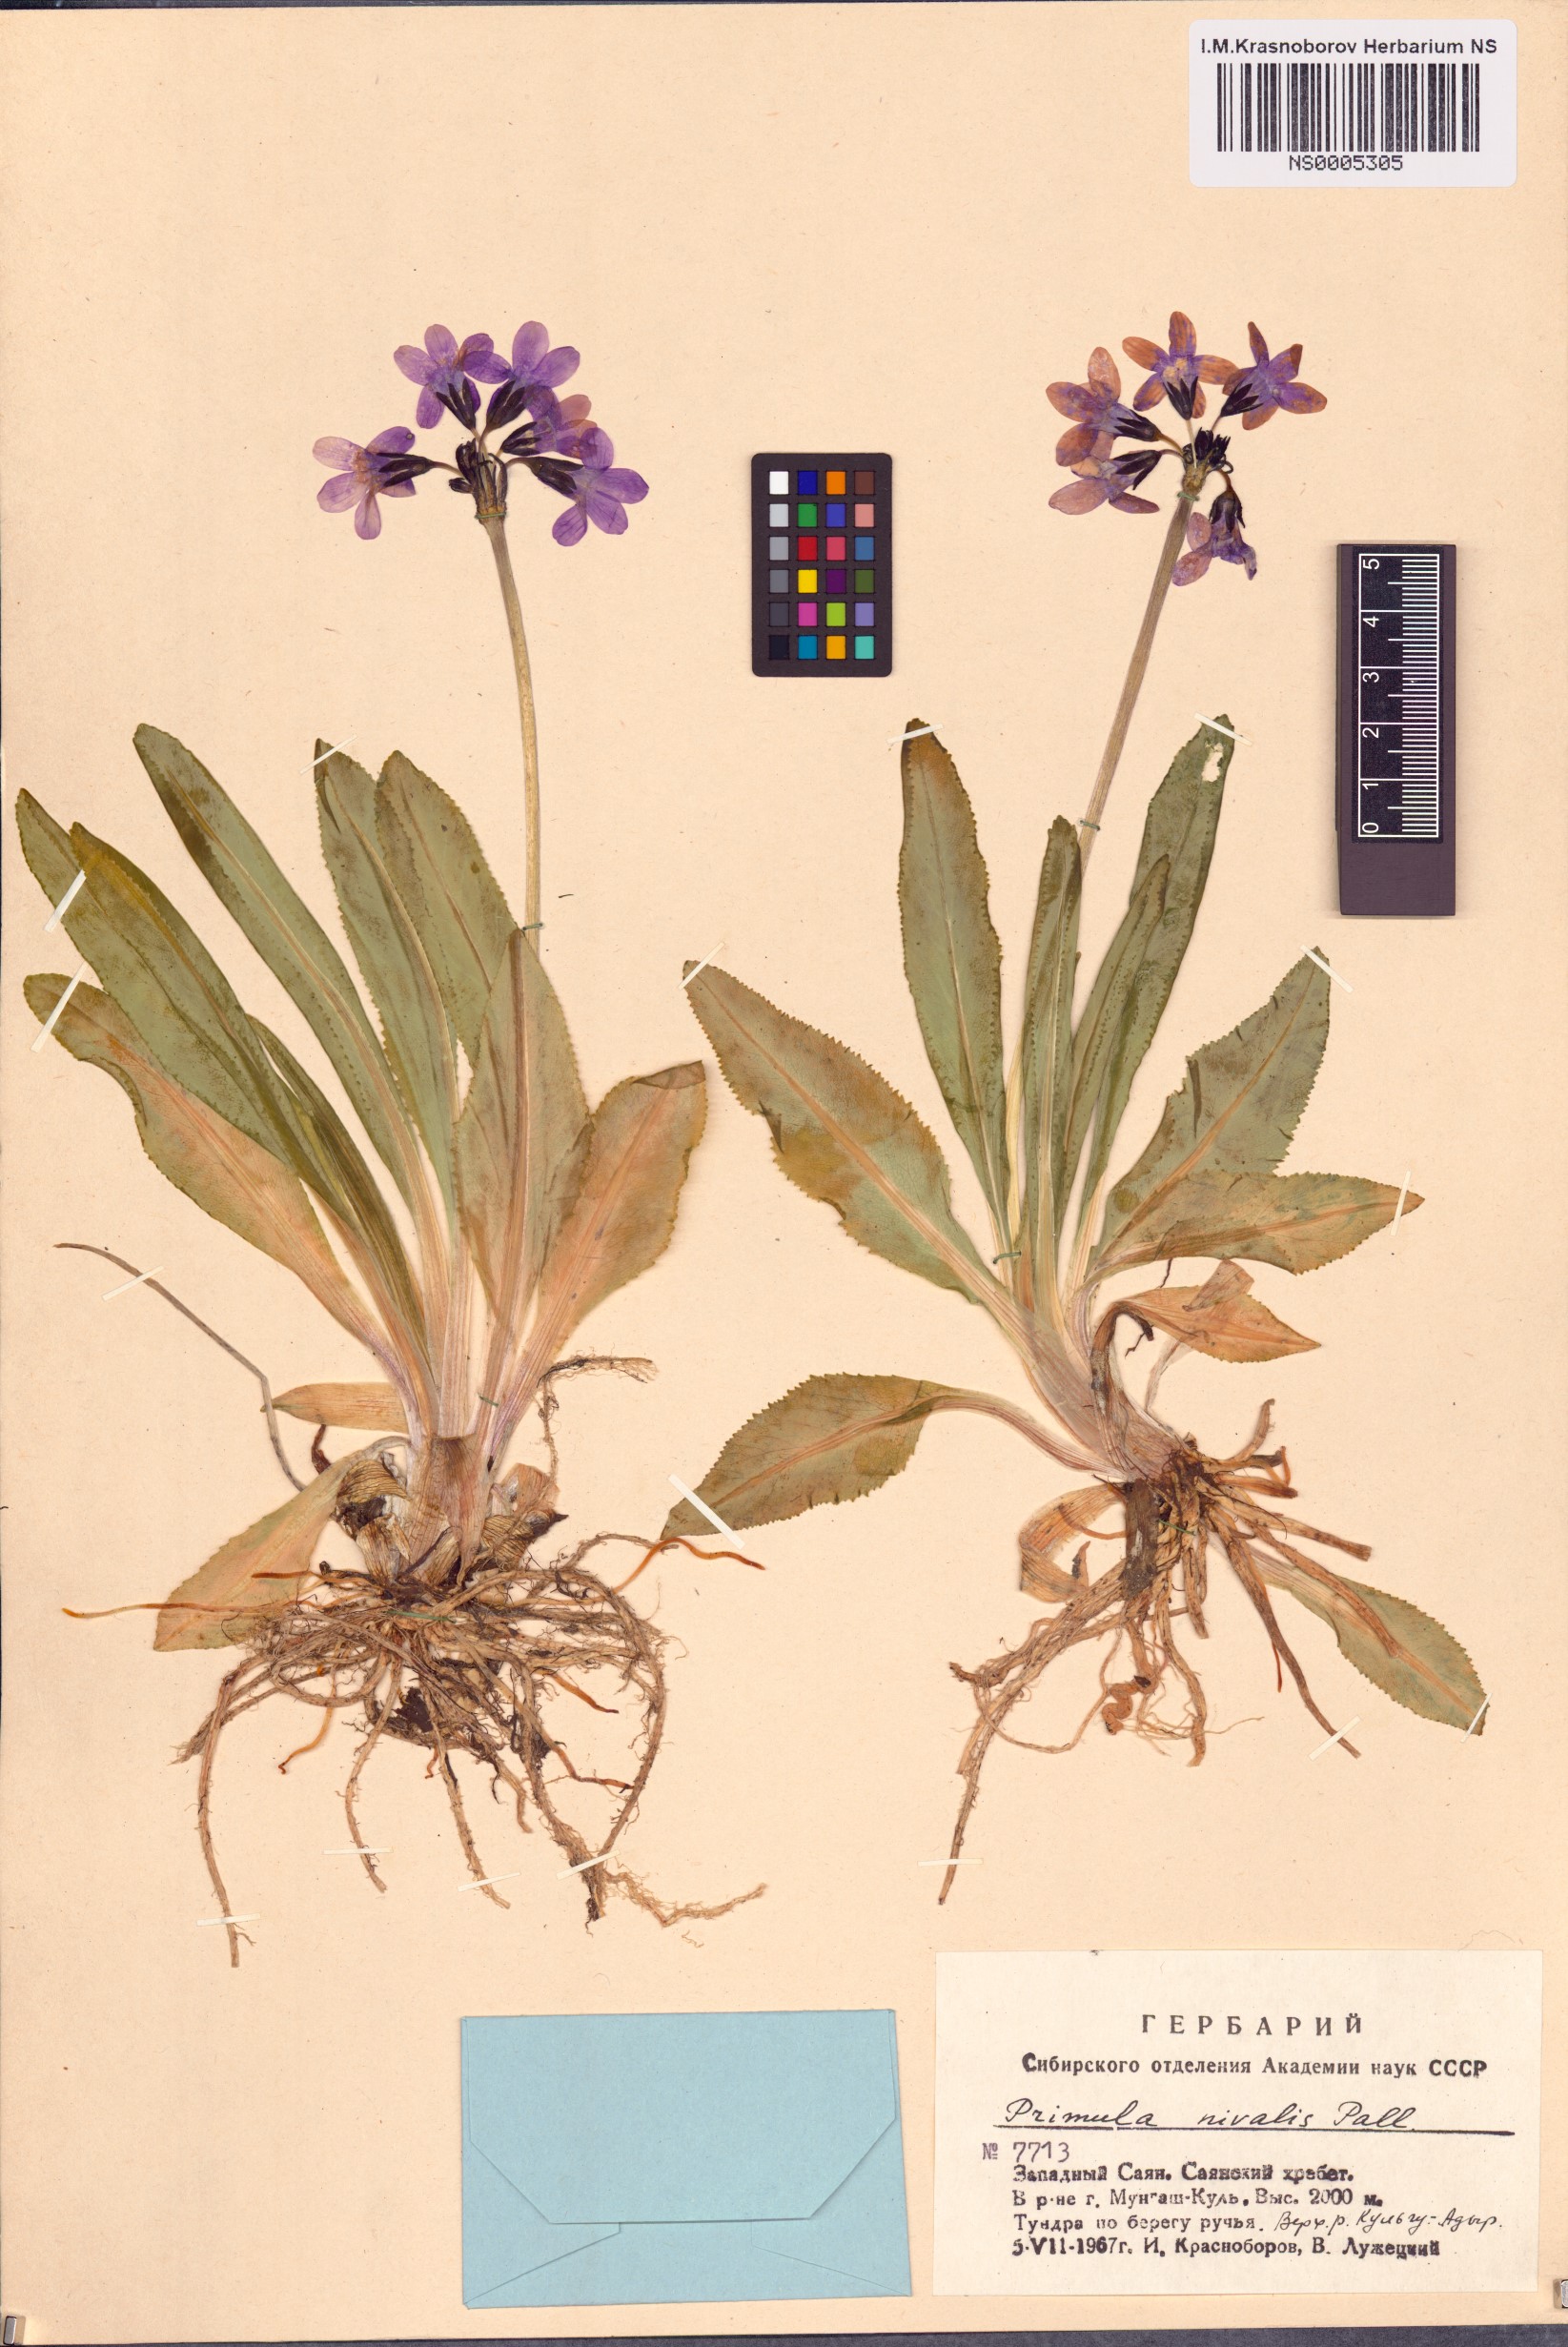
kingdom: Plantae
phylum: Tracheophyta
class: Magnoliopsida
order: Ericales
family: Primulaceae
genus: Primula
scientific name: Primula nivalis
